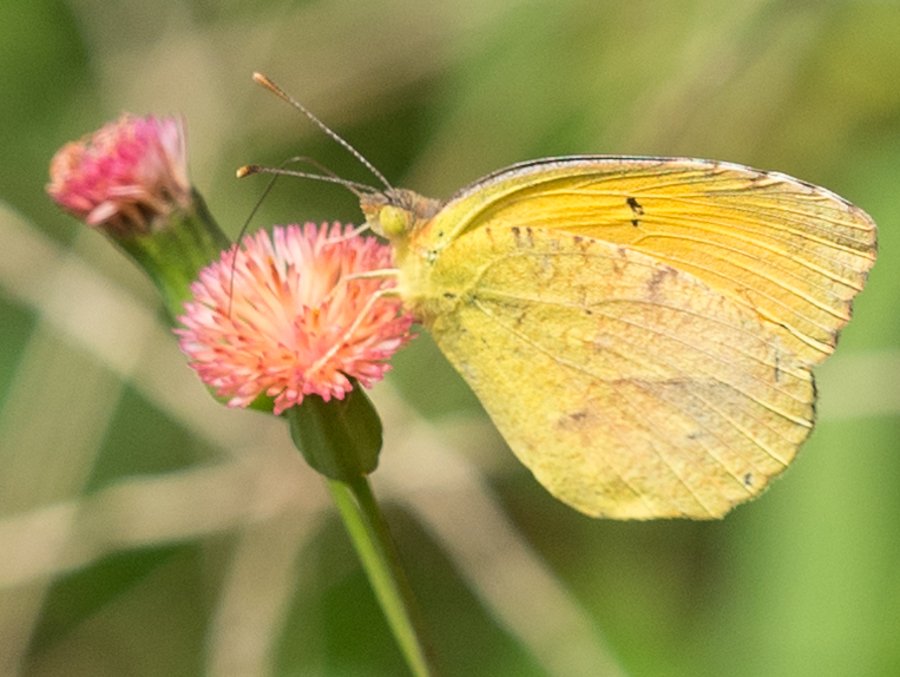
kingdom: Animalia
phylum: Arthropoda
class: Insecta
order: Lepidoptera
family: Pieridae
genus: Abaeis
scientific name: Abaeis nicippe
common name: Sleepy Orange
